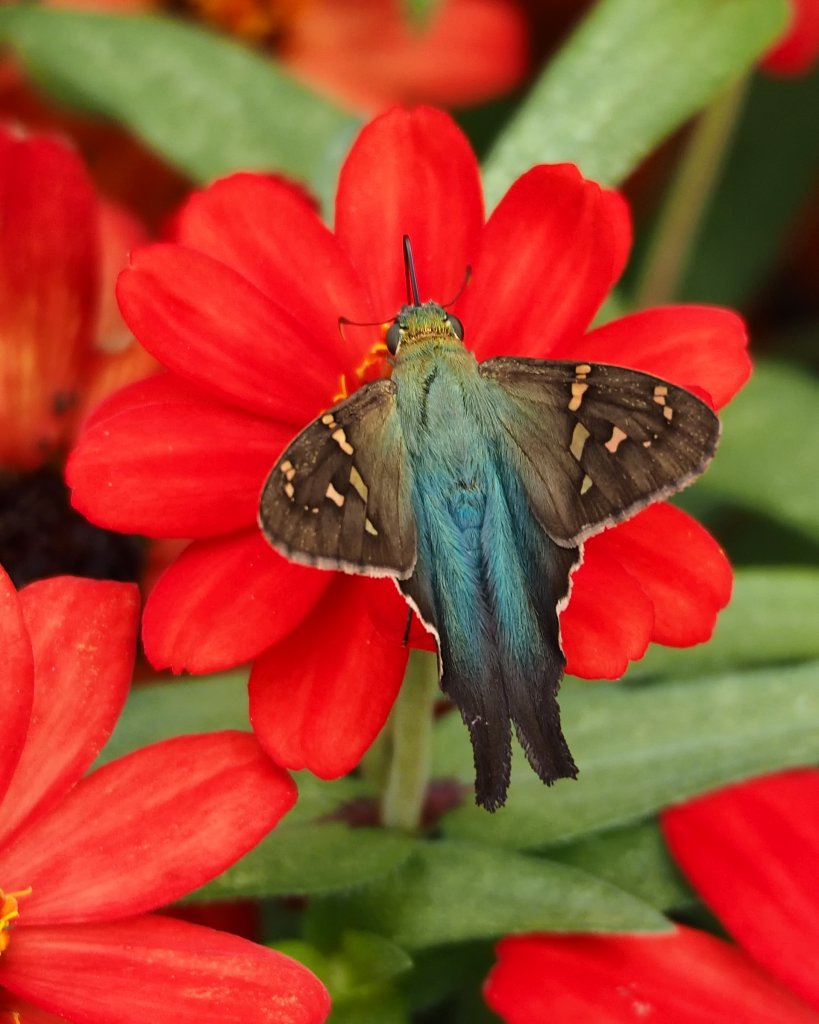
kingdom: Animalia
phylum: Arthropoda
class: Insecta
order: Lepidoptera
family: Hesperiidae
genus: Urbanus
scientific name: Urbanus proteus
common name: Long-tailed Skipper
